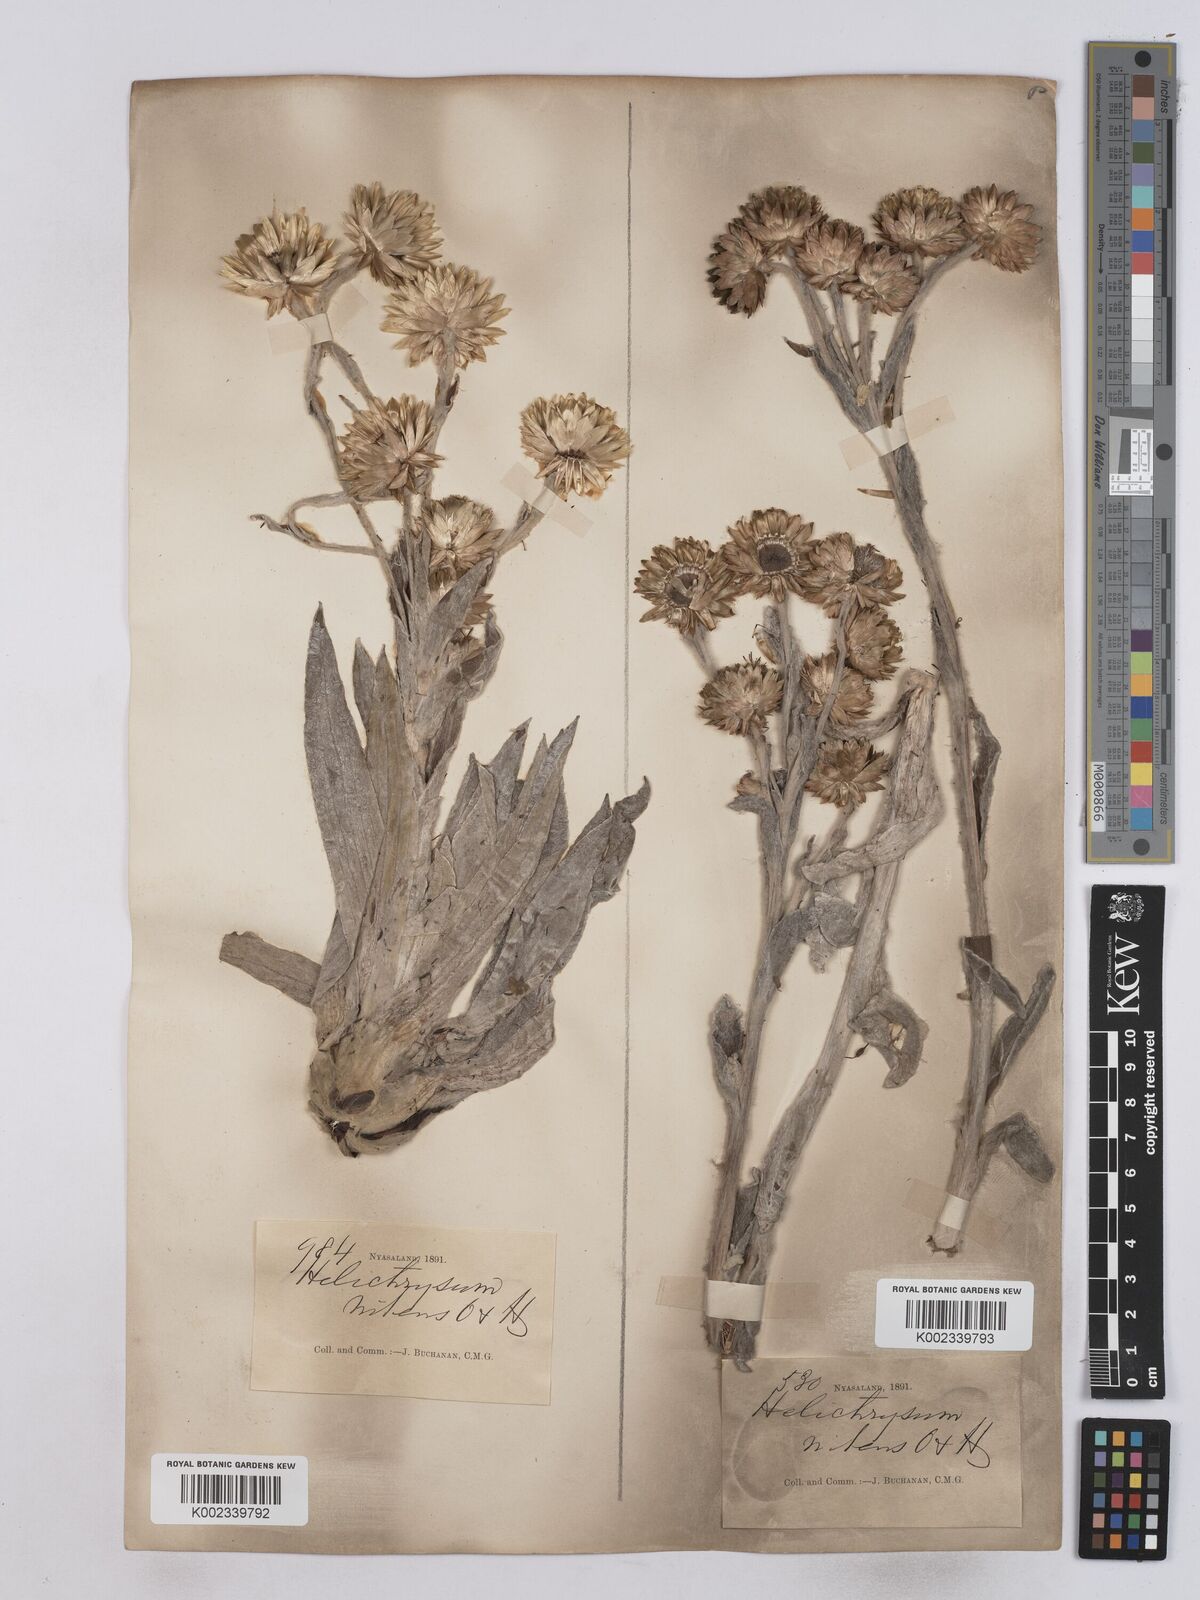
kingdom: Plantae
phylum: Tracheophyta
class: Magnoliopsida
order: Asterales
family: Asteraceae
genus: Helichrysum
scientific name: Helichrysum nitens
